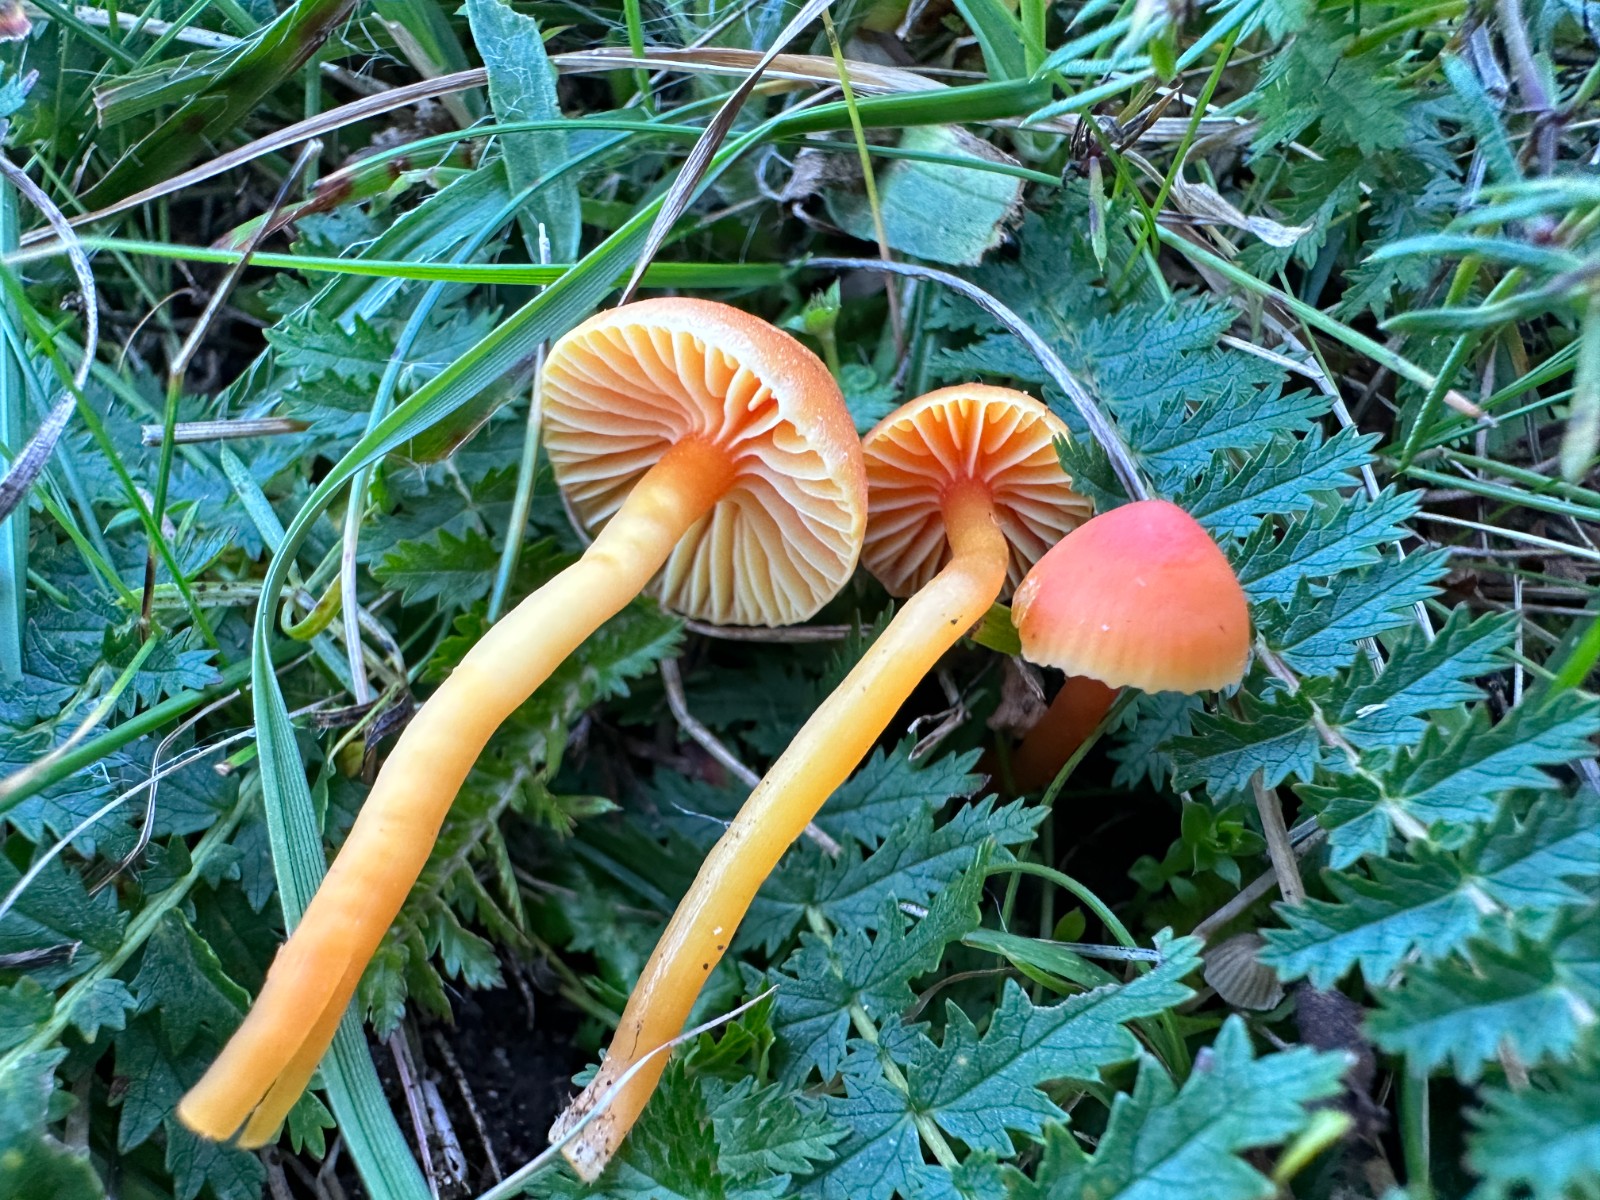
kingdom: Fungi
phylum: Basidiomycota
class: Agaricomycetes
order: Agaricales
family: Hygrophoraceae
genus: Hygrocybe
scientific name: Hygrocybe mucronella
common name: bitter vokshat
